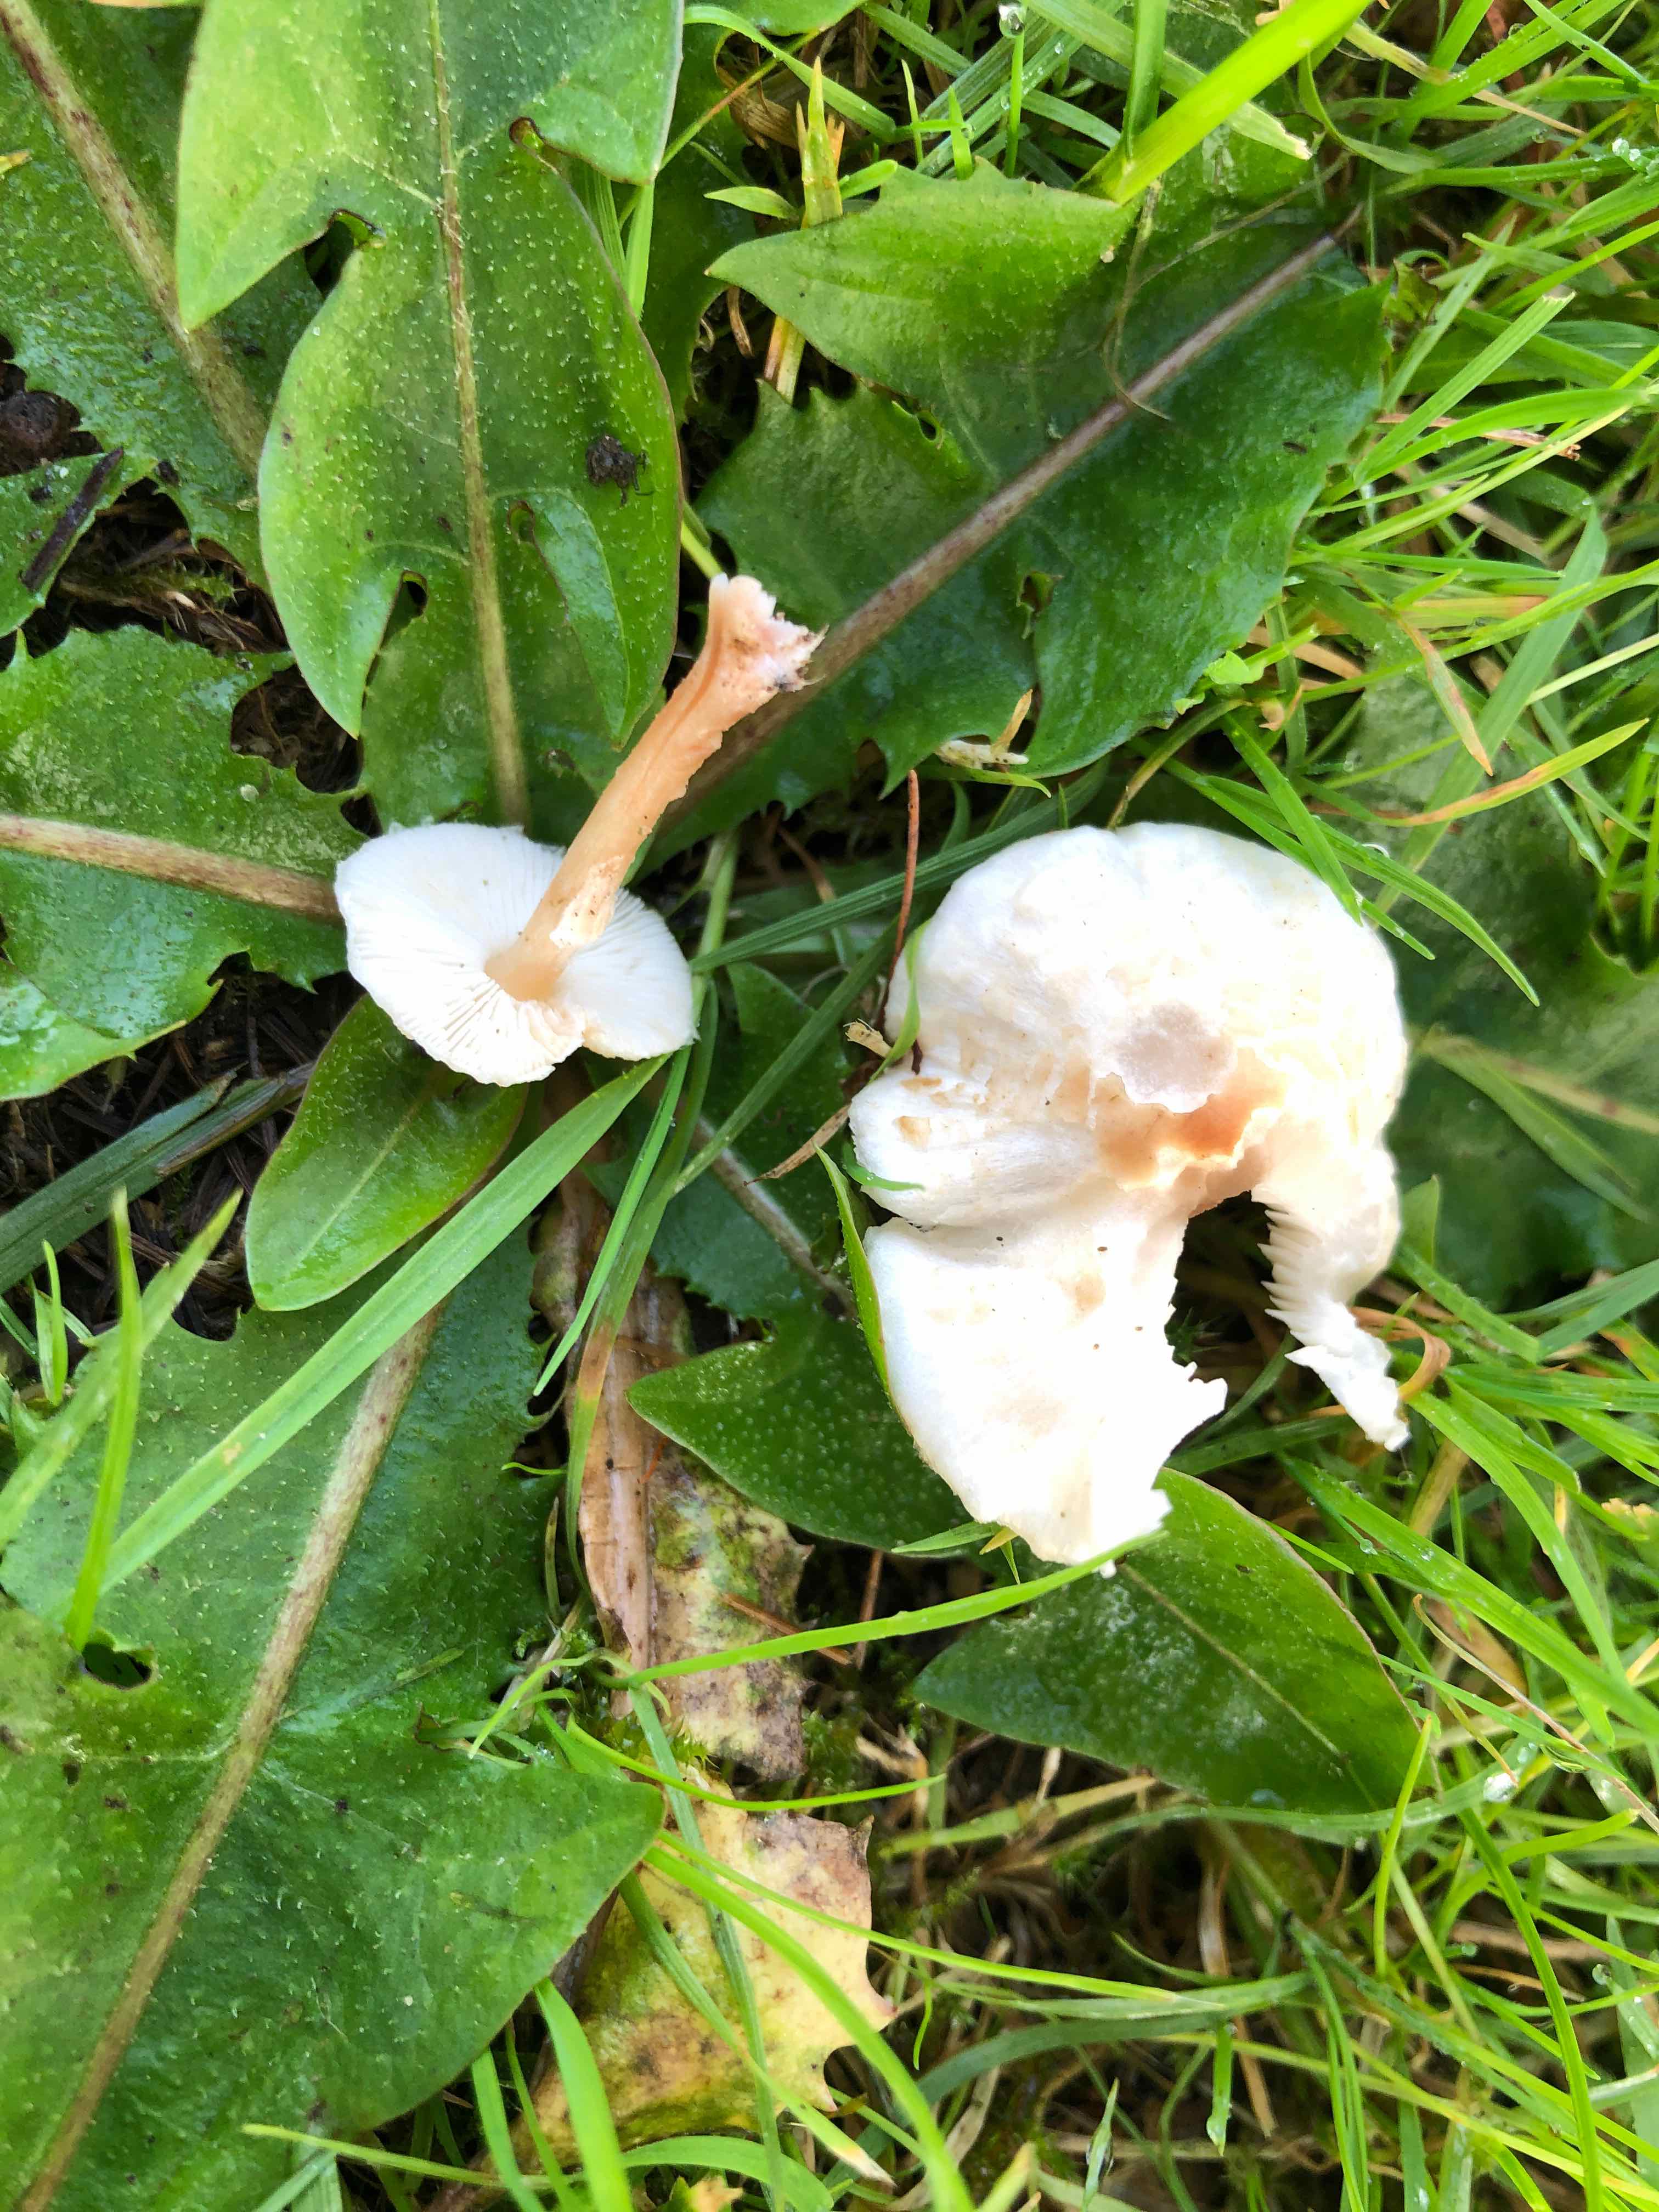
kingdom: Fungi
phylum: Basidiomycota
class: Agaricomycetes
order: Agaricales
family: Agaricaceae
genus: Lepiota
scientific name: Lepiota cristata
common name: stinkende parasolhat
